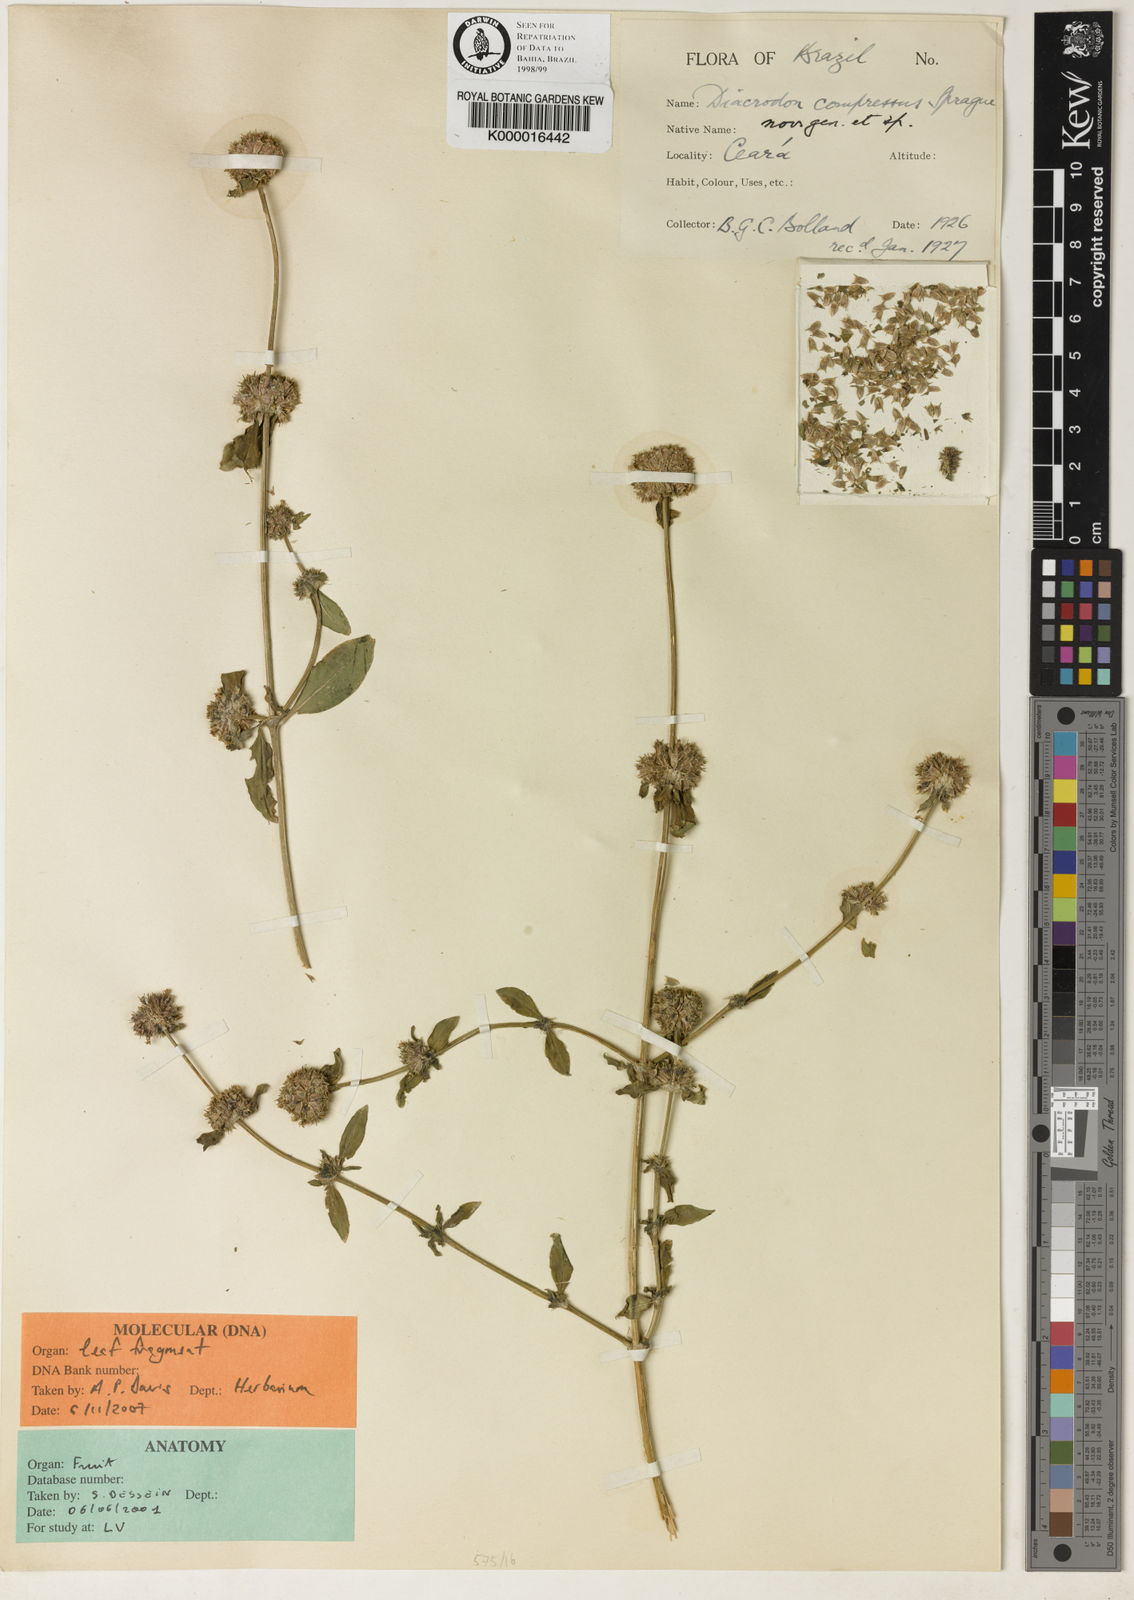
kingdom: Plantae
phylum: Tracheophyta
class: Magnoliopsida
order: Gentianales
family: Rubiaceae
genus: Diacrodon
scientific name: Diacrodon compressus
